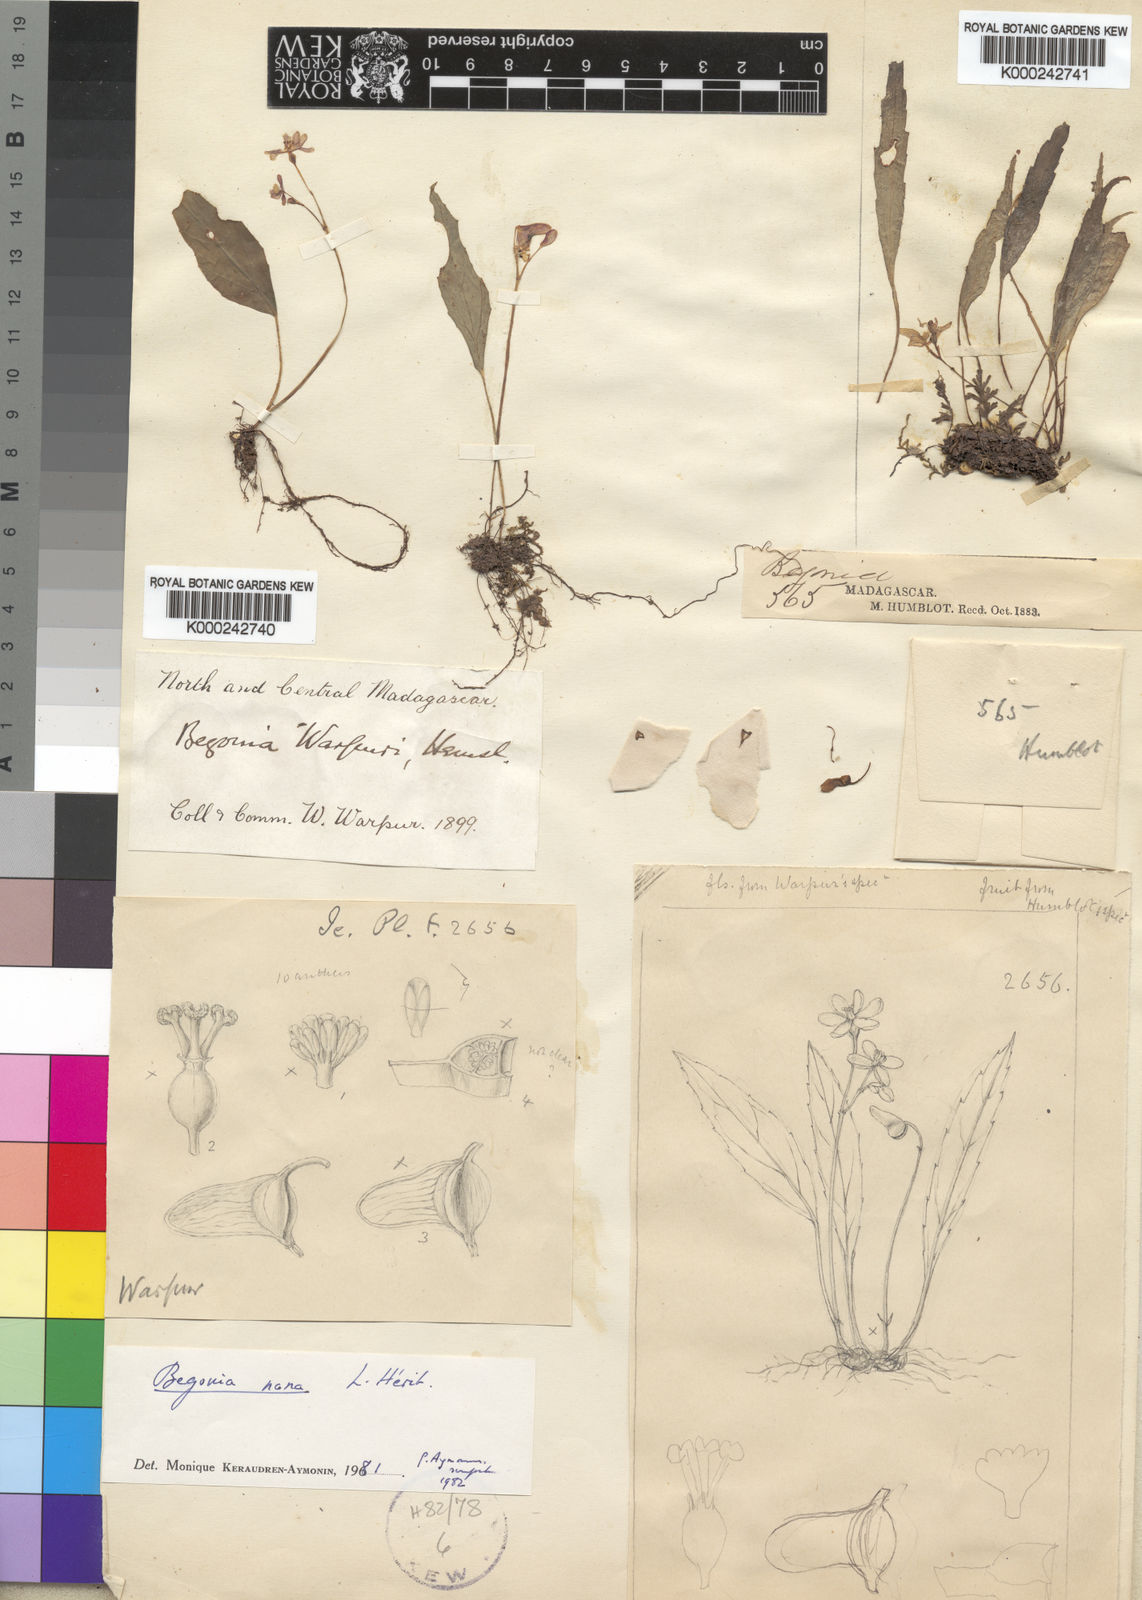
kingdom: Plantae
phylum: Tracheophyta
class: Magnoliopsida
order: Cucurbitales
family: Begoniaceae
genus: Begonia
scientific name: Begonia
